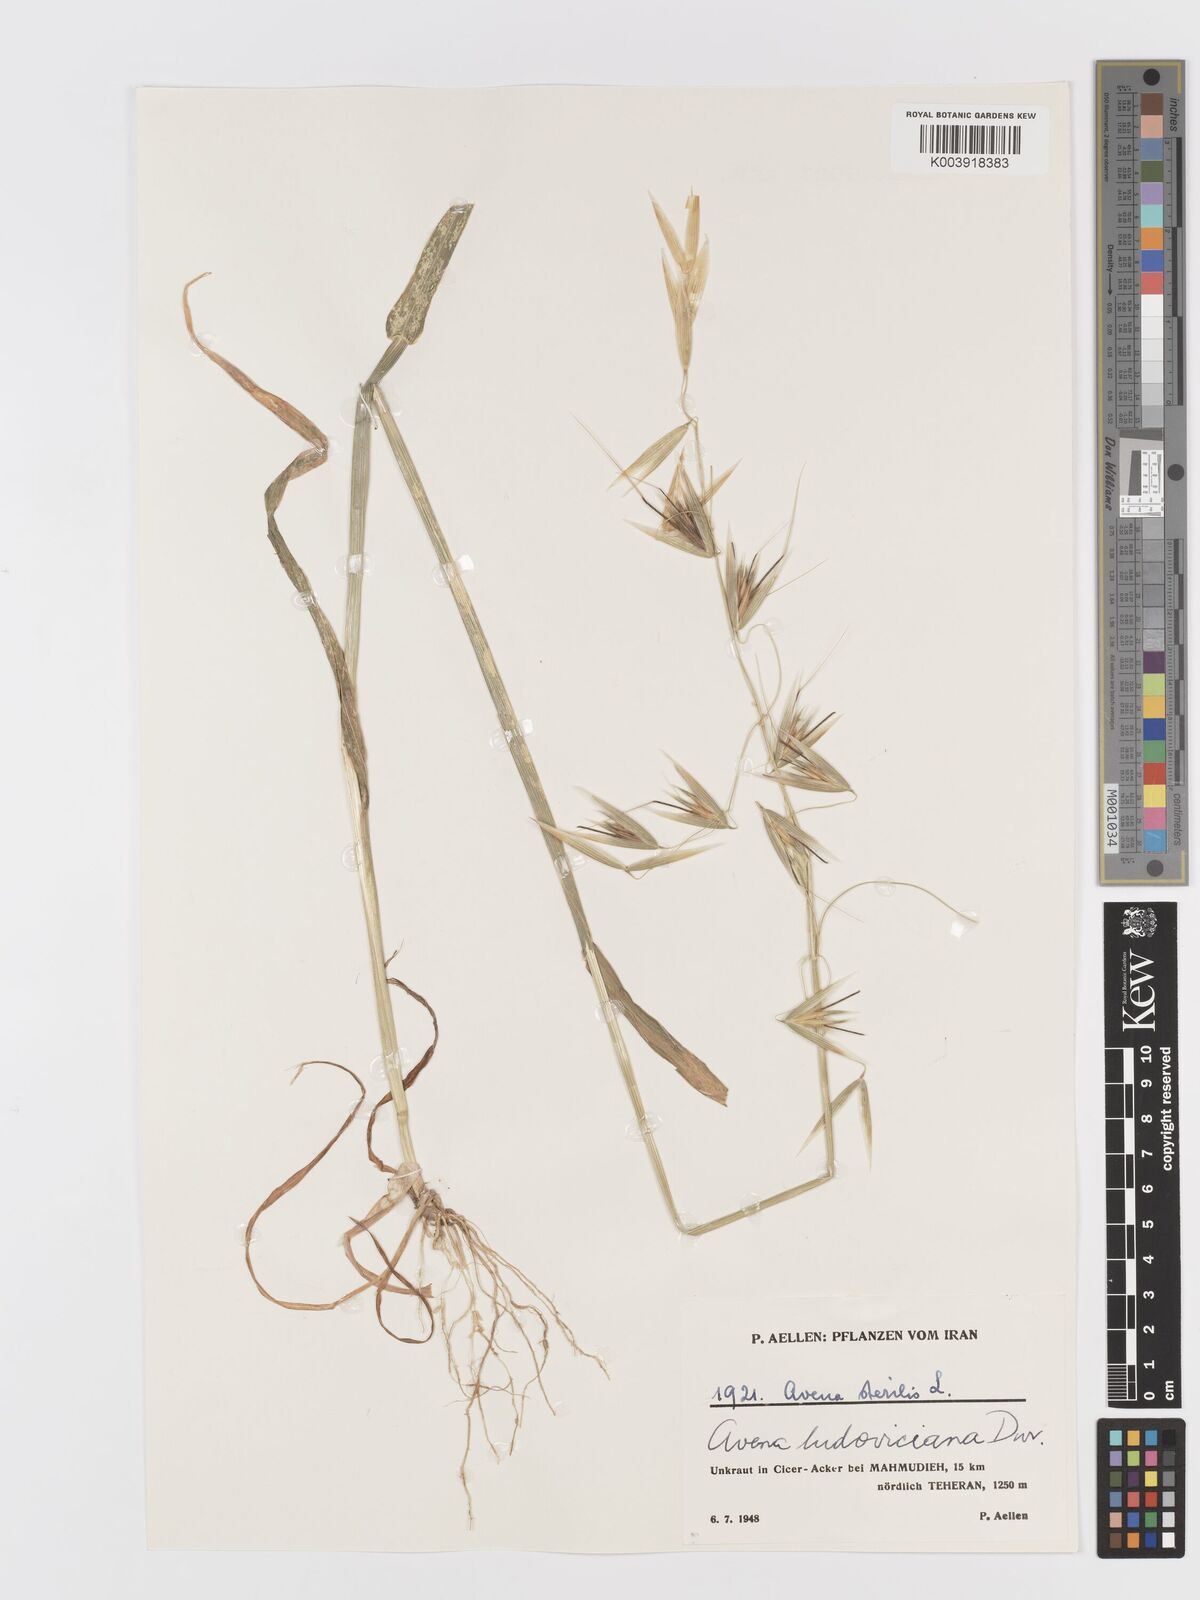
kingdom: Plantae
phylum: Tracheophyta
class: Liliopsida
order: Poales
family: Poaceae
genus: Avena
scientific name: Avena sterilis
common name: Animated oat
